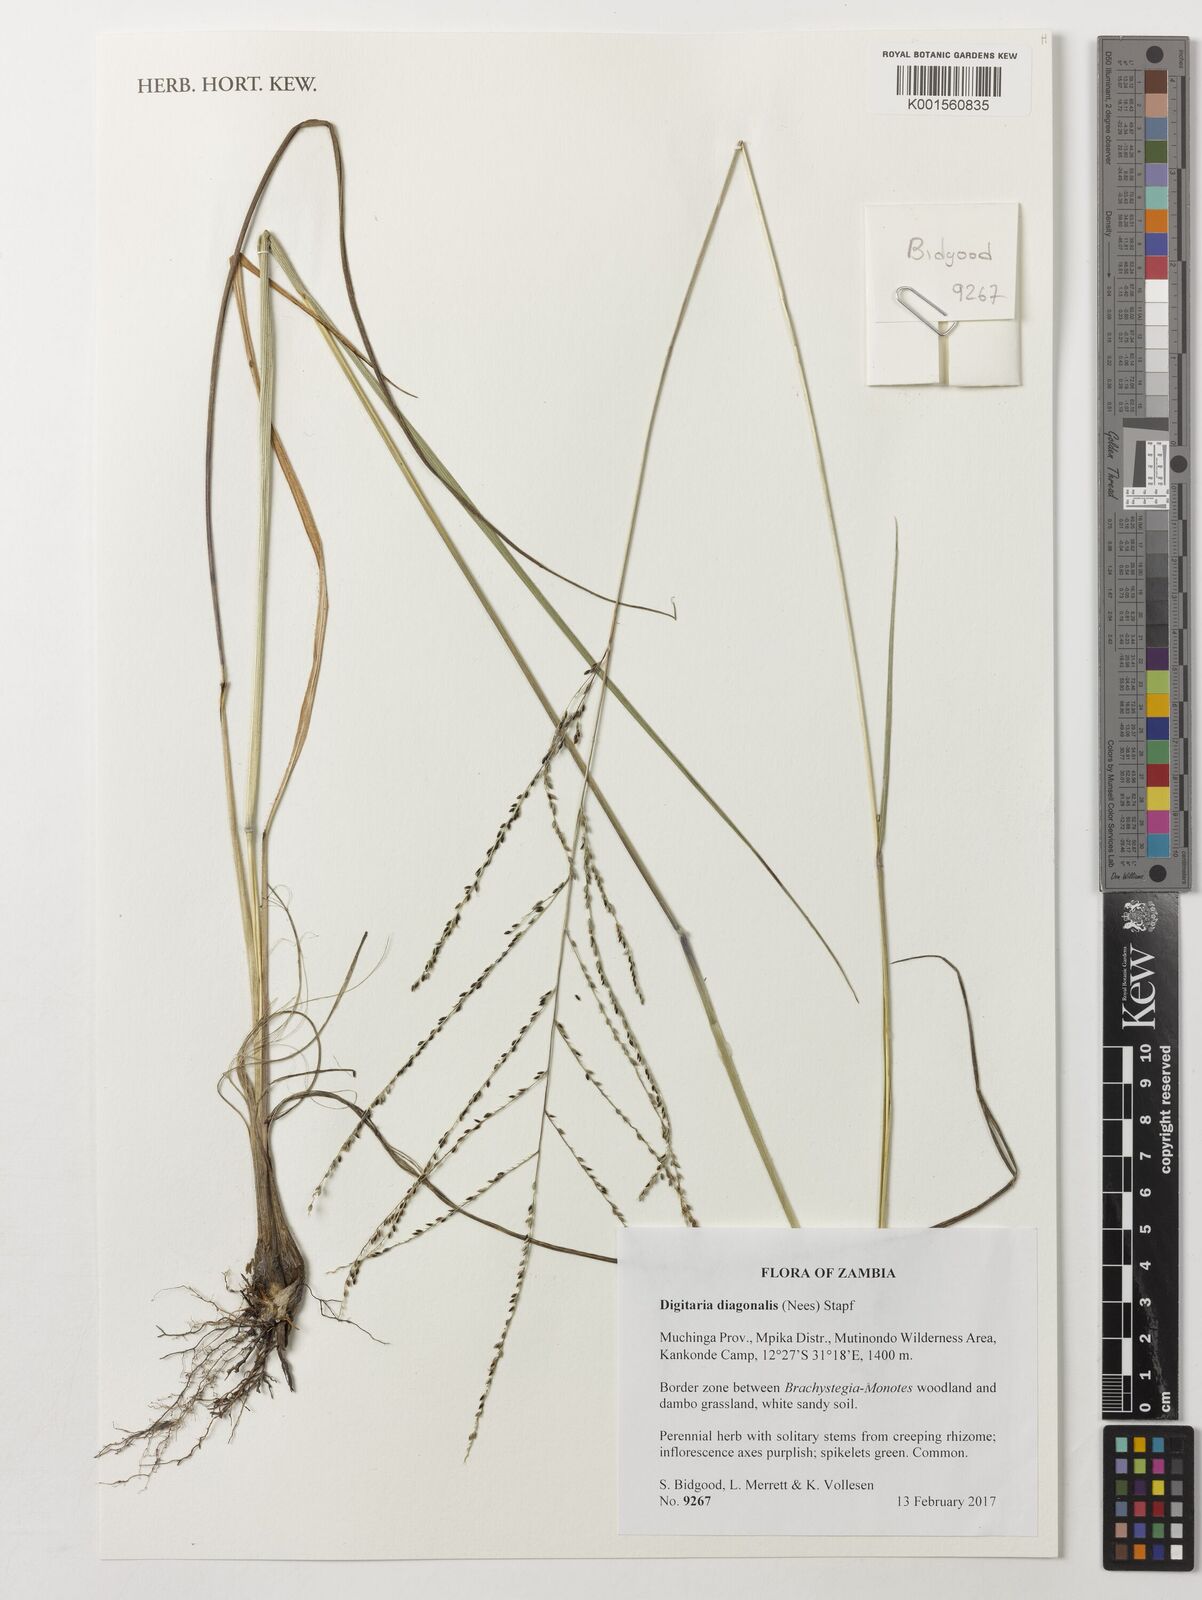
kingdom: Plantae
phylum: Tracheophyta
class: Liliopsida
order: Poales
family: Poaceae
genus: Digitaria
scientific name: Digitaria diagonalis
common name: Brown-seed finger grass
